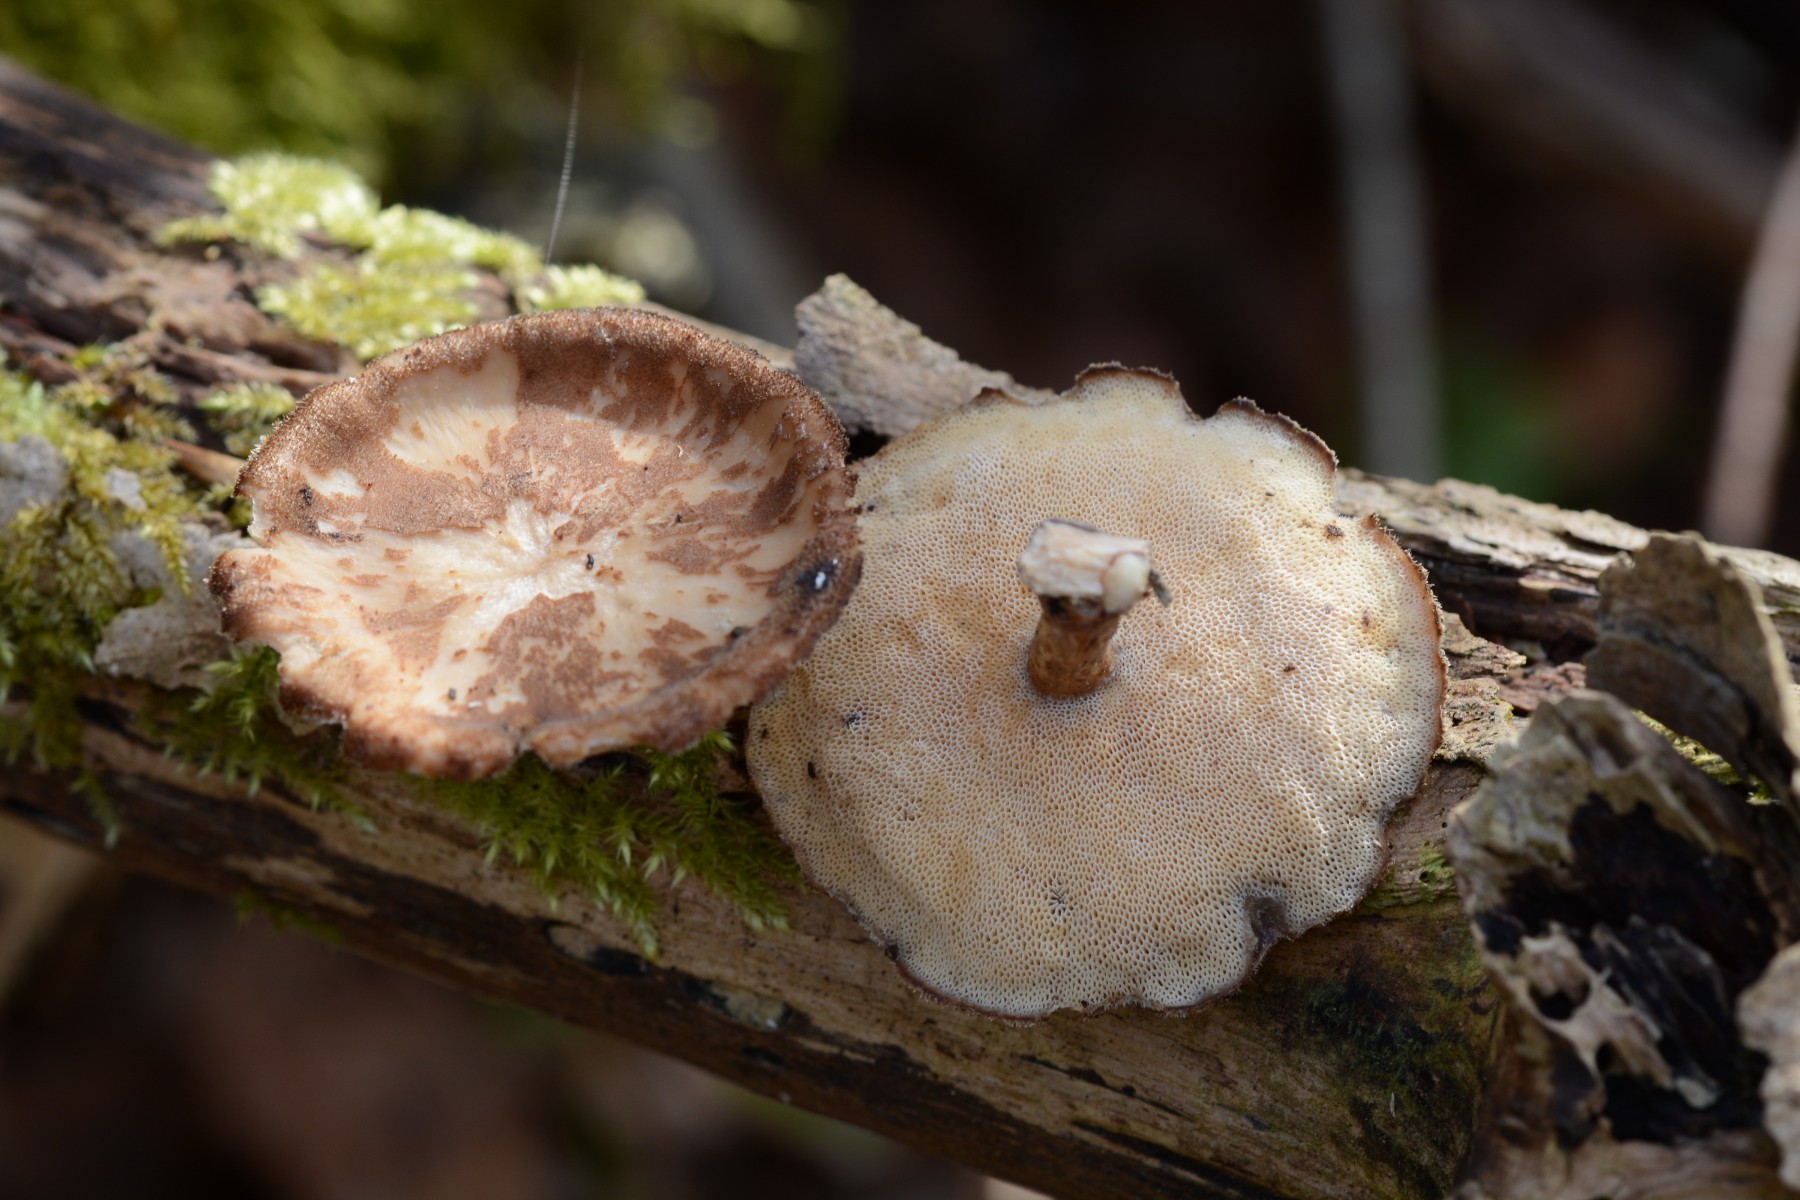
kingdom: Fungi
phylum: Basidiomycota
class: Agaricomycetes
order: Polyporales
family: Polyporaceae
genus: Lentinus
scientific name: Lentinus brumalis
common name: vinter-stilkporesvamp
